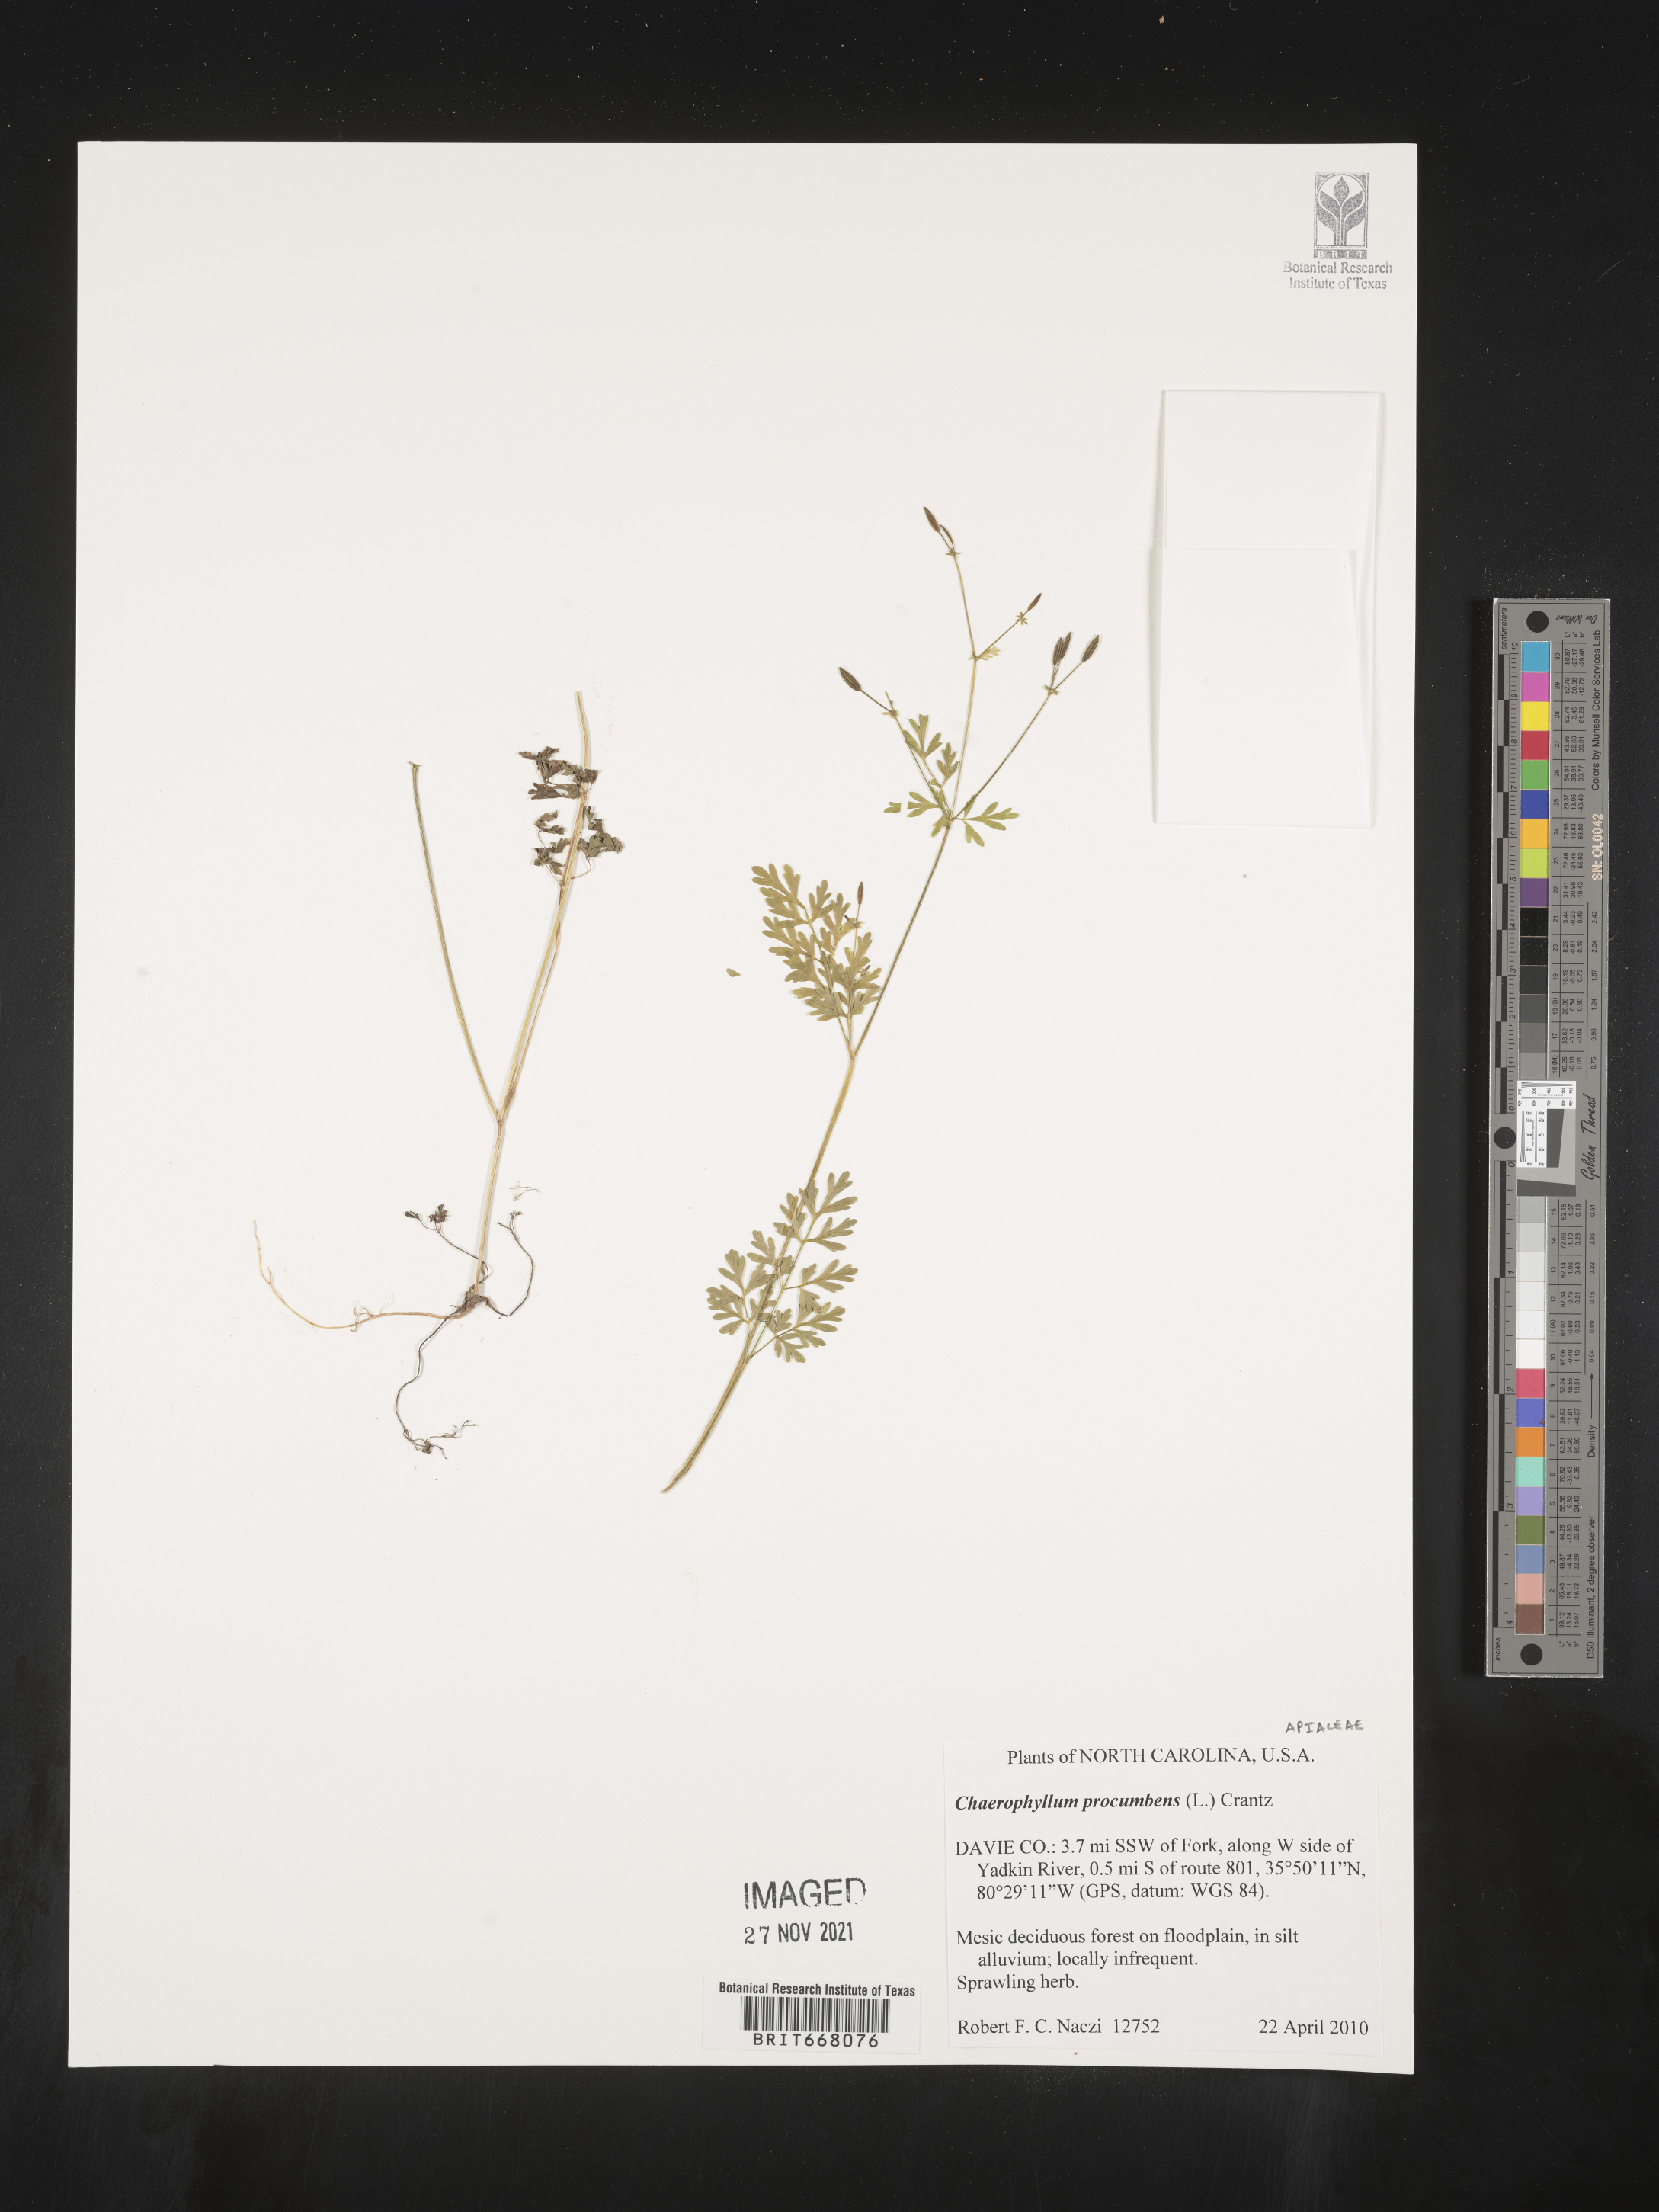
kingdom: Plantae
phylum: Tracheophyta
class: Magnoliopsida
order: Apiales
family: Apiaceae
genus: Chaerophyllum
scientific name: Chaerophyllum procumbens
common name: Spreading chervil
